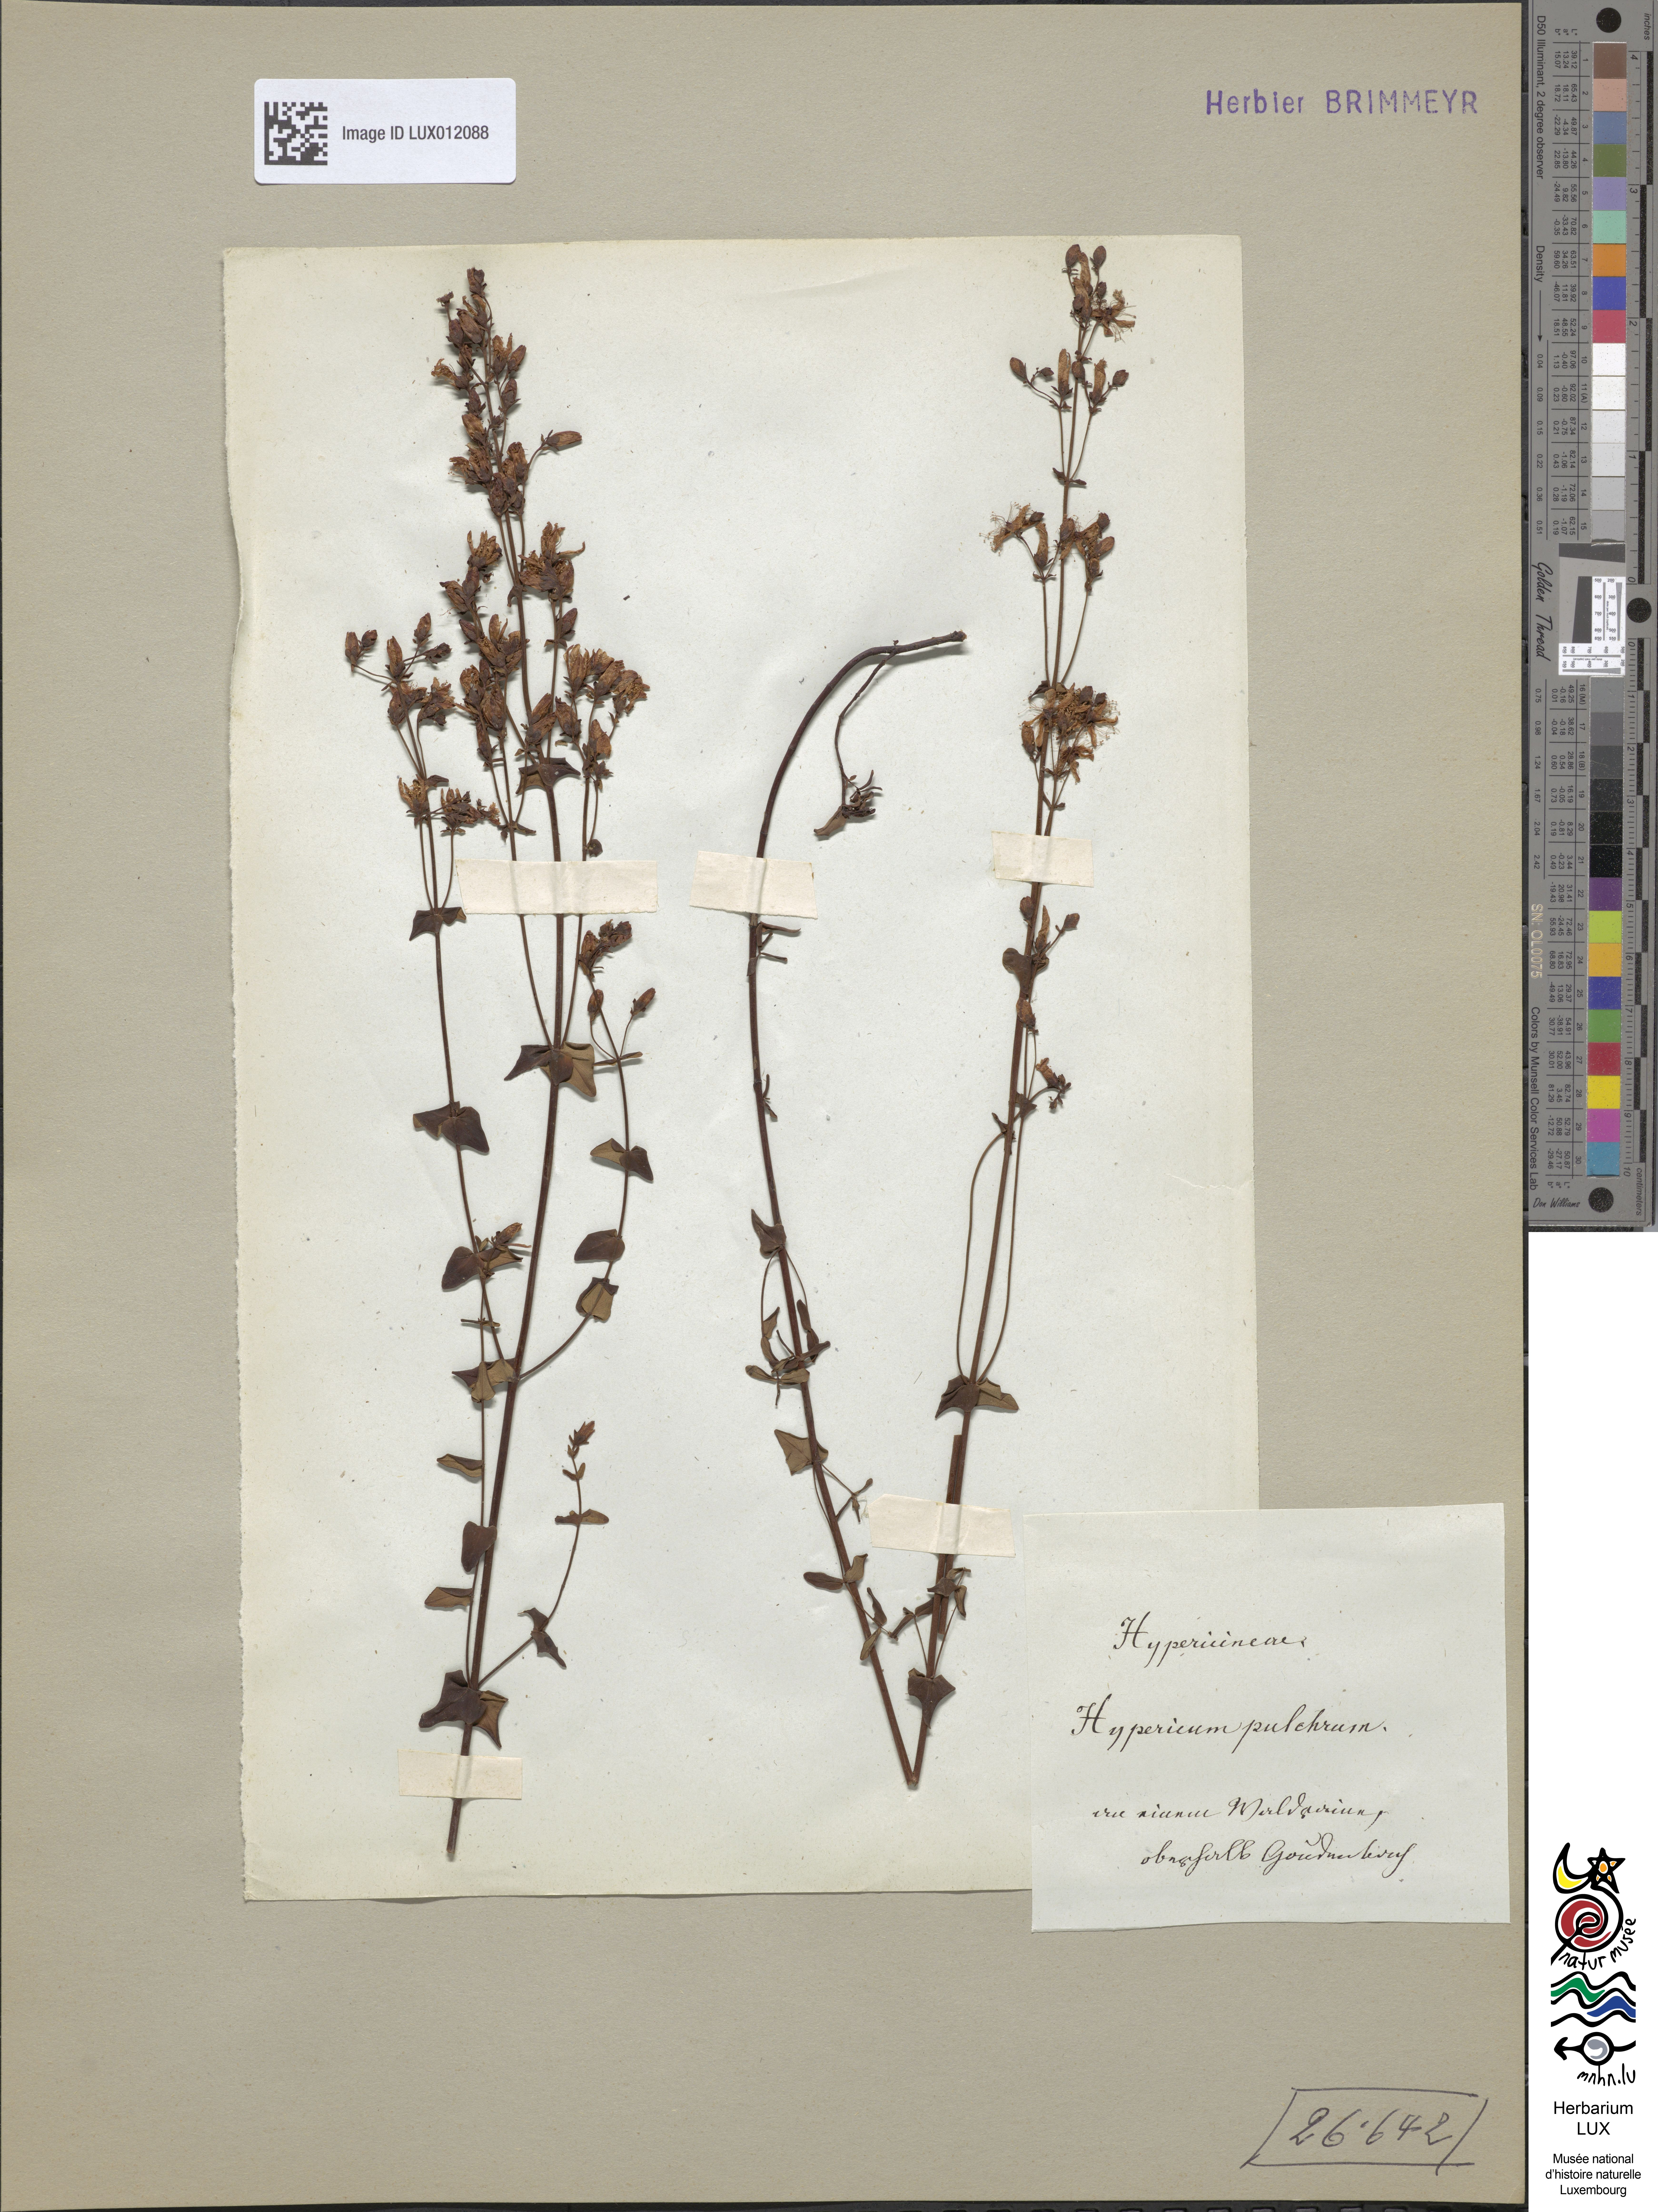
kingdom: Plantae
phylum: Tracheophyta
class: Magnoliopsida
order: Malpighiales
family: Hypericaceae
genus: Hypericum
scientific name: Hypericum pulchrum
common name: Slender st. john's-wort
